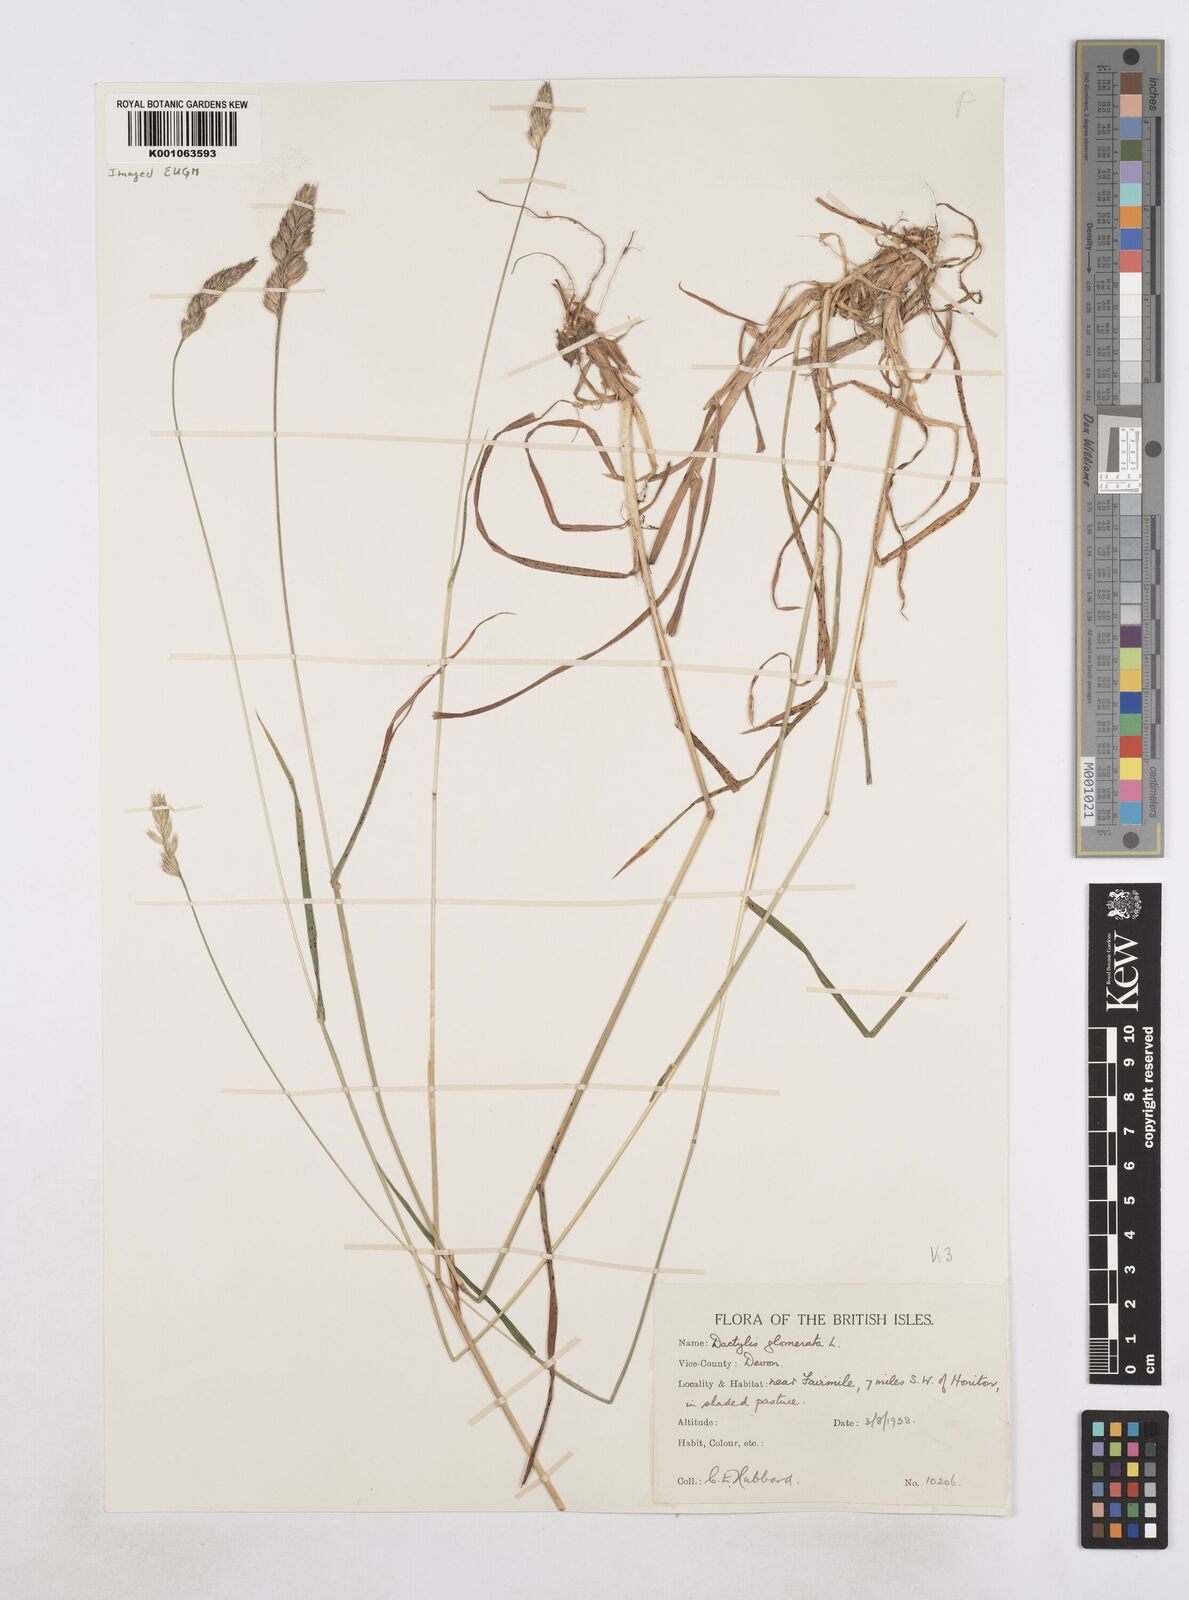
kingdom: Plantae
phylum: Tracheophyta
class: Liliopsida
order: Poales
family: Poaceae
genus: Dactylis
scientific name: Dactylis glomerata
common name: Orchardgrass
